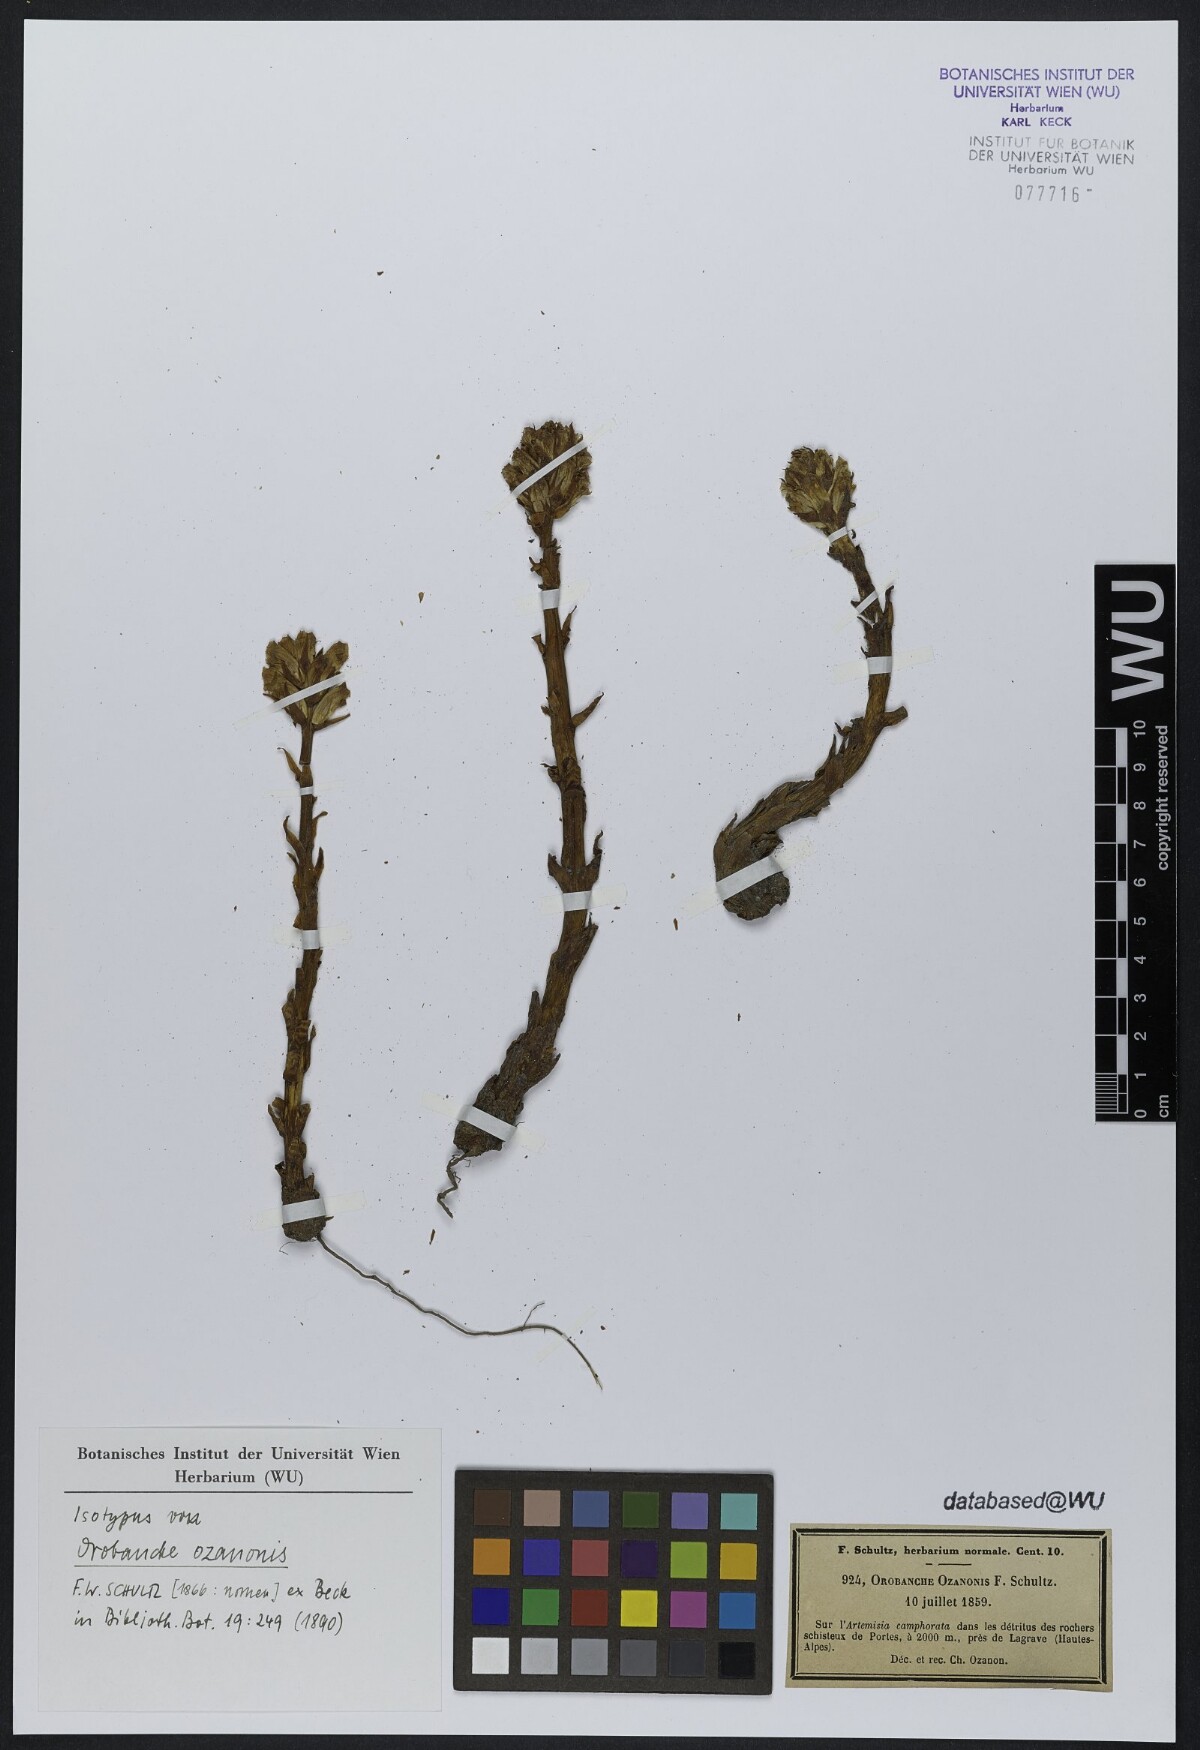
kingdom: Plantae
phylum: Tracheophyta
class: Magnoliopsida
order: Lamiales
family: Orobanchaceae
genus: Orobanche
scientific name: Orobanche minor
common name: Common broomrape
